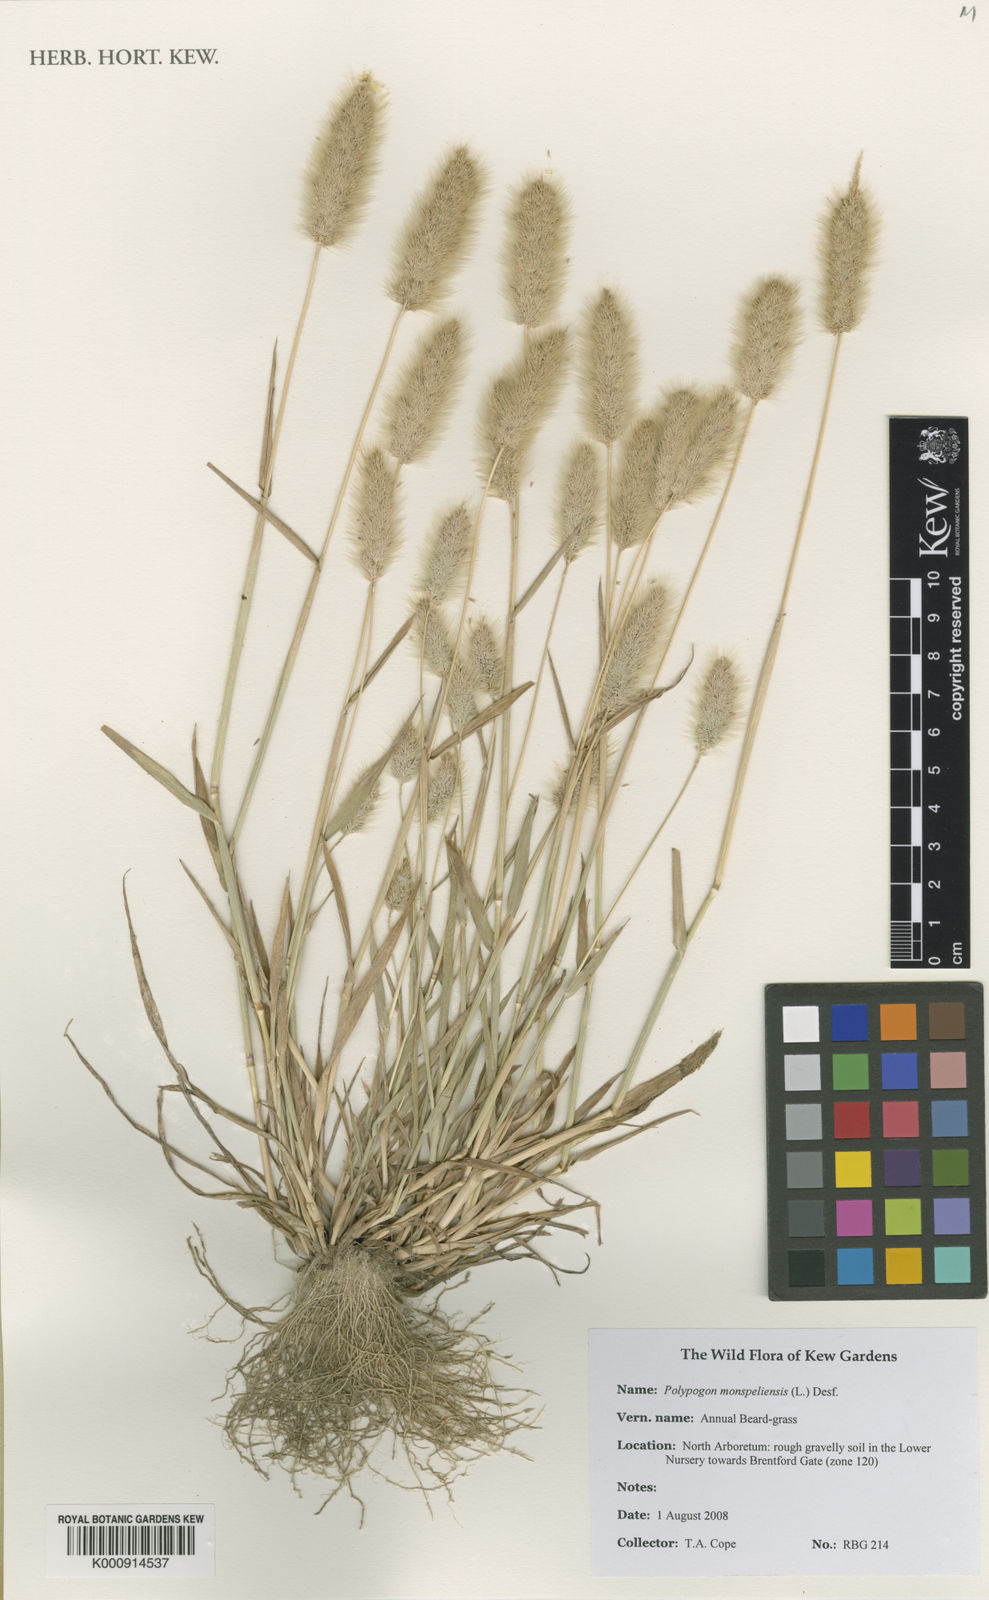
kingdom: Plantae
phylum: Tracheophyta
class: Liliopsida
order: Poales
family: Poaceae
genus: Polypogon
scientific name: Polypogon monspeliensis
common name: Annual rabbitsfoot grass
